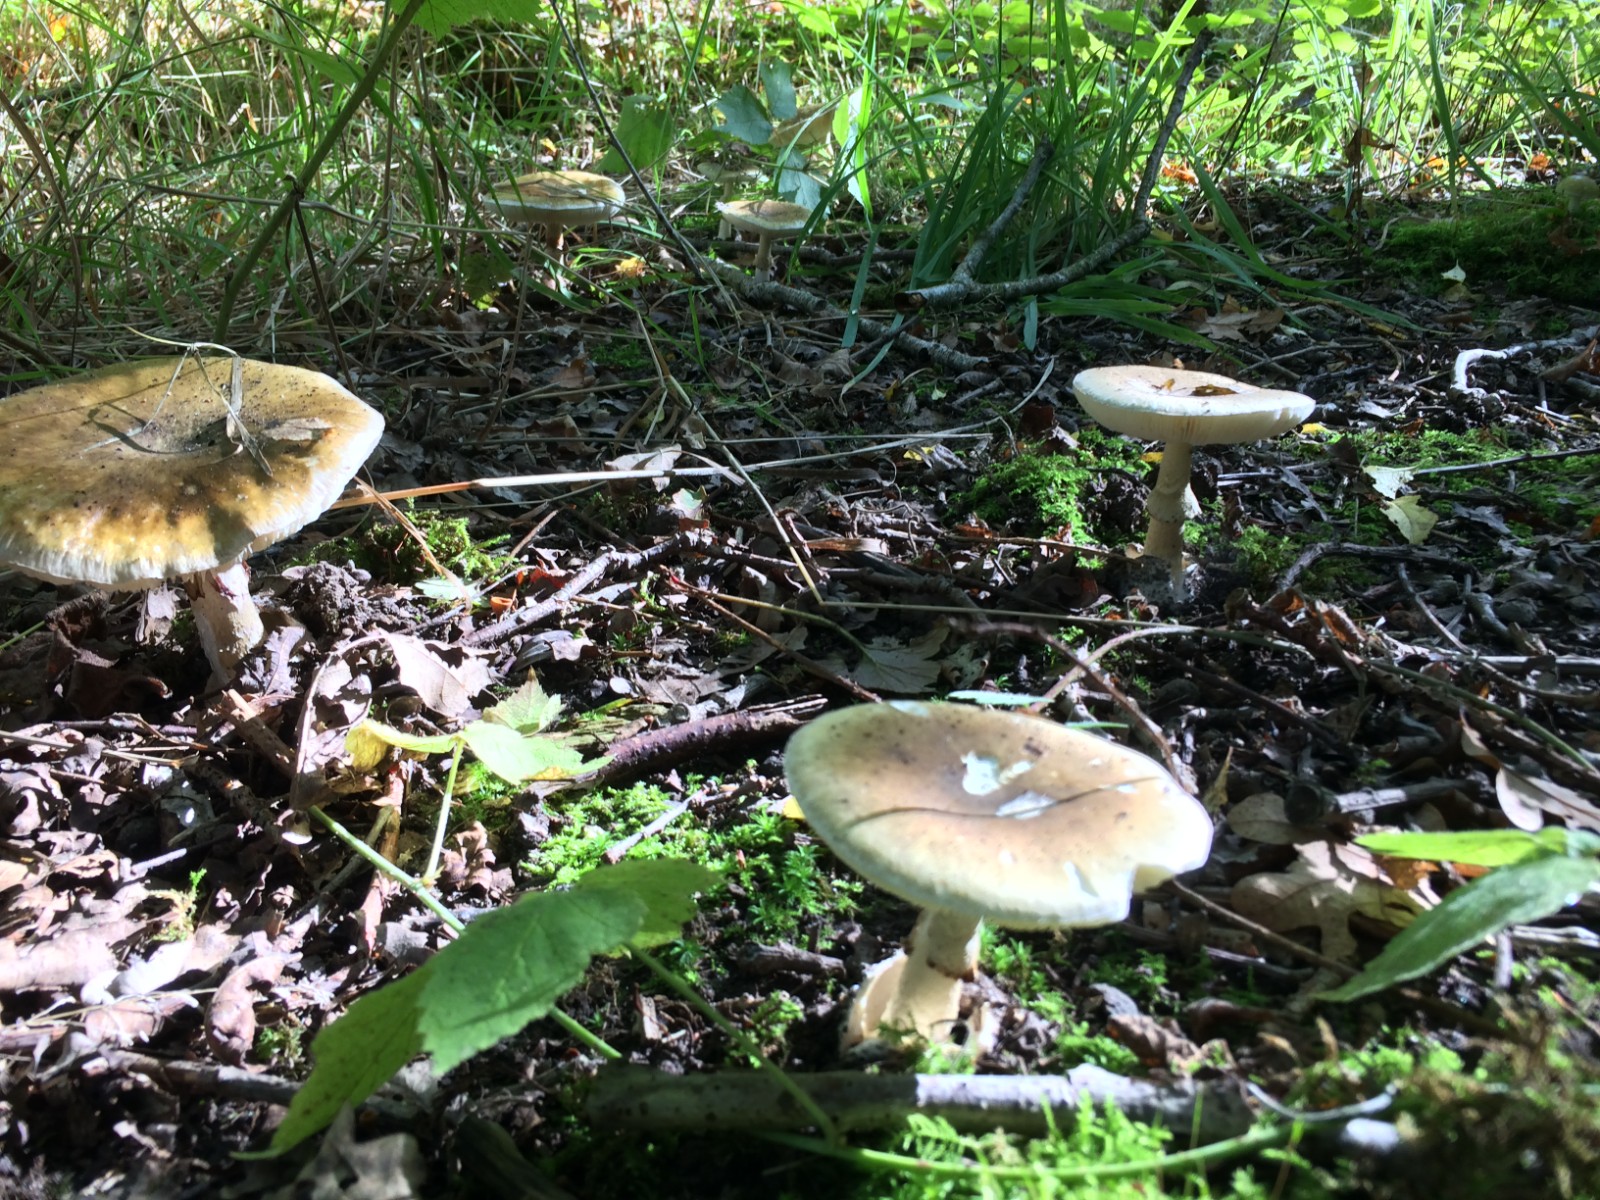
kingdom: Fungi
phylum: Basidiomycota
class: Agaricomycetes
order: Agaricales
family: Amanitaceae
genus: Amanita
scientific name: Amanita phalloides
